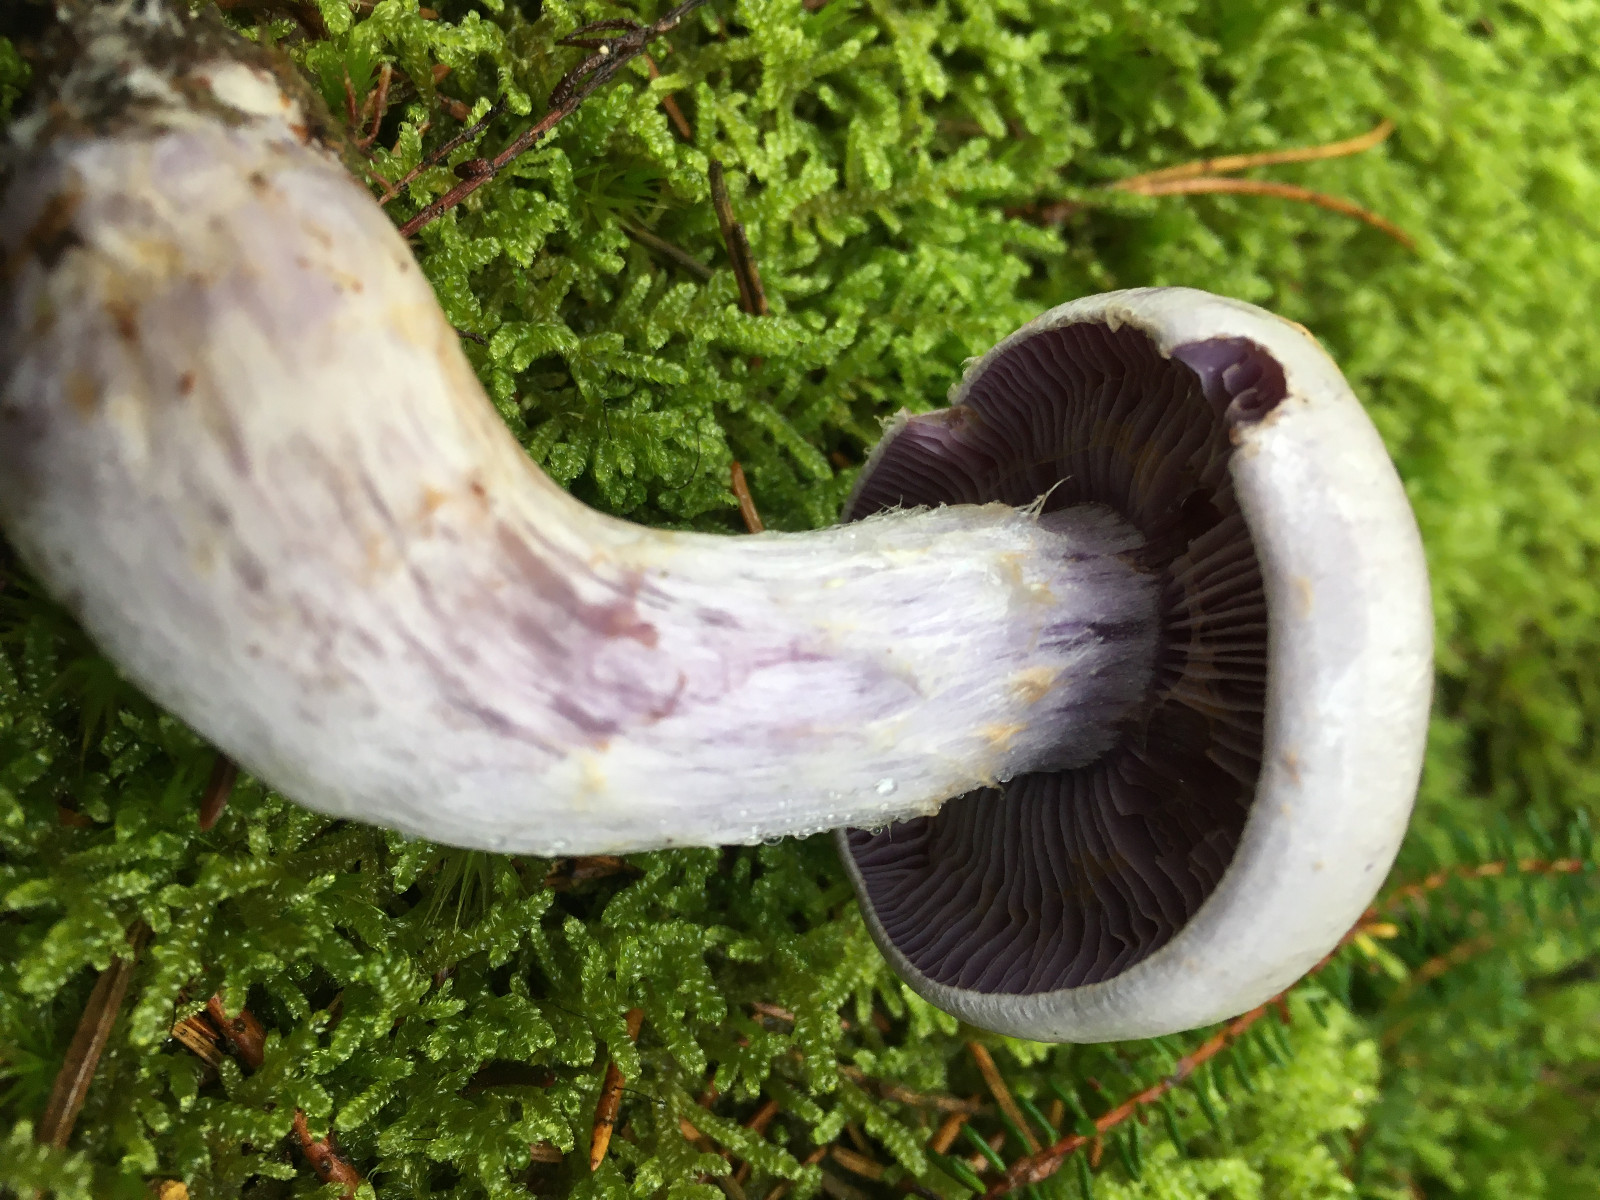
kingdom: Fungi
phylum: Basidiomycota
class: Agaricomycetes
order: Agaricales
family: Cortinariaceae
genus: Cortinarius
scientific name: Cortinarius camphoratus
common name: stinkende slørhat
